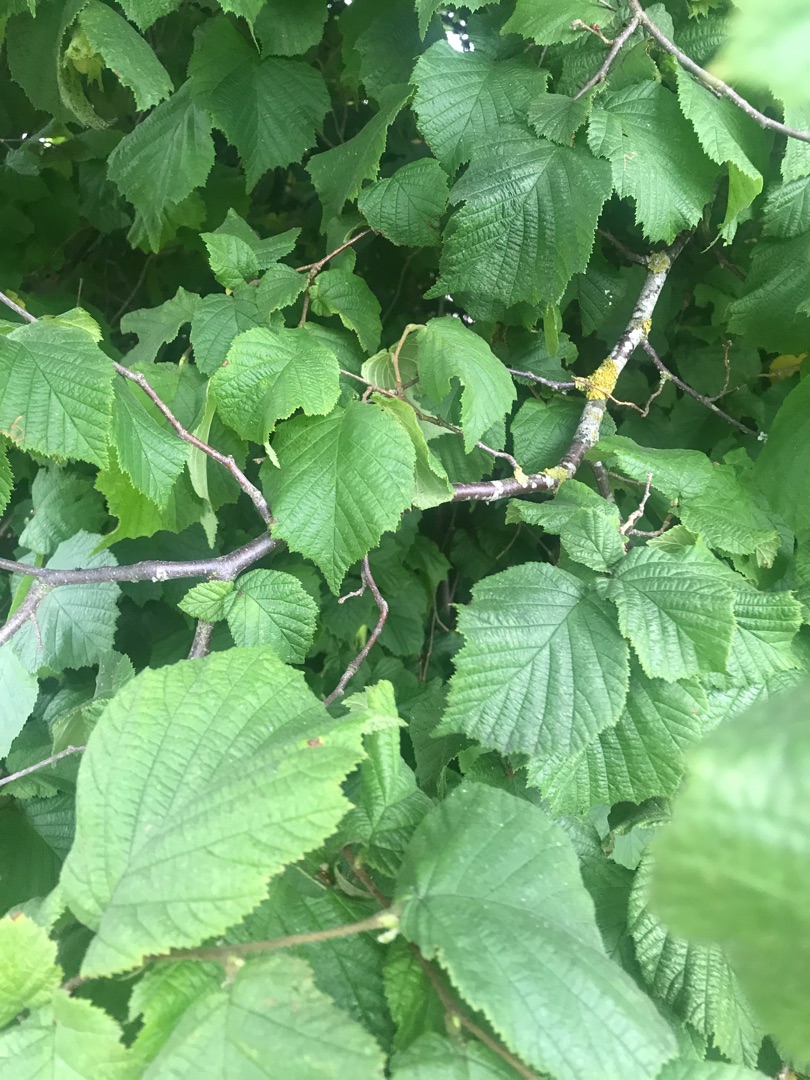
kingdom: Plantae
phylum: Tracheophyta
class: Magnoliopsida
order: Fagales
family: Betulaceae
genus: Corylus
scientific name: Corylus avellana
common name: Hassel
